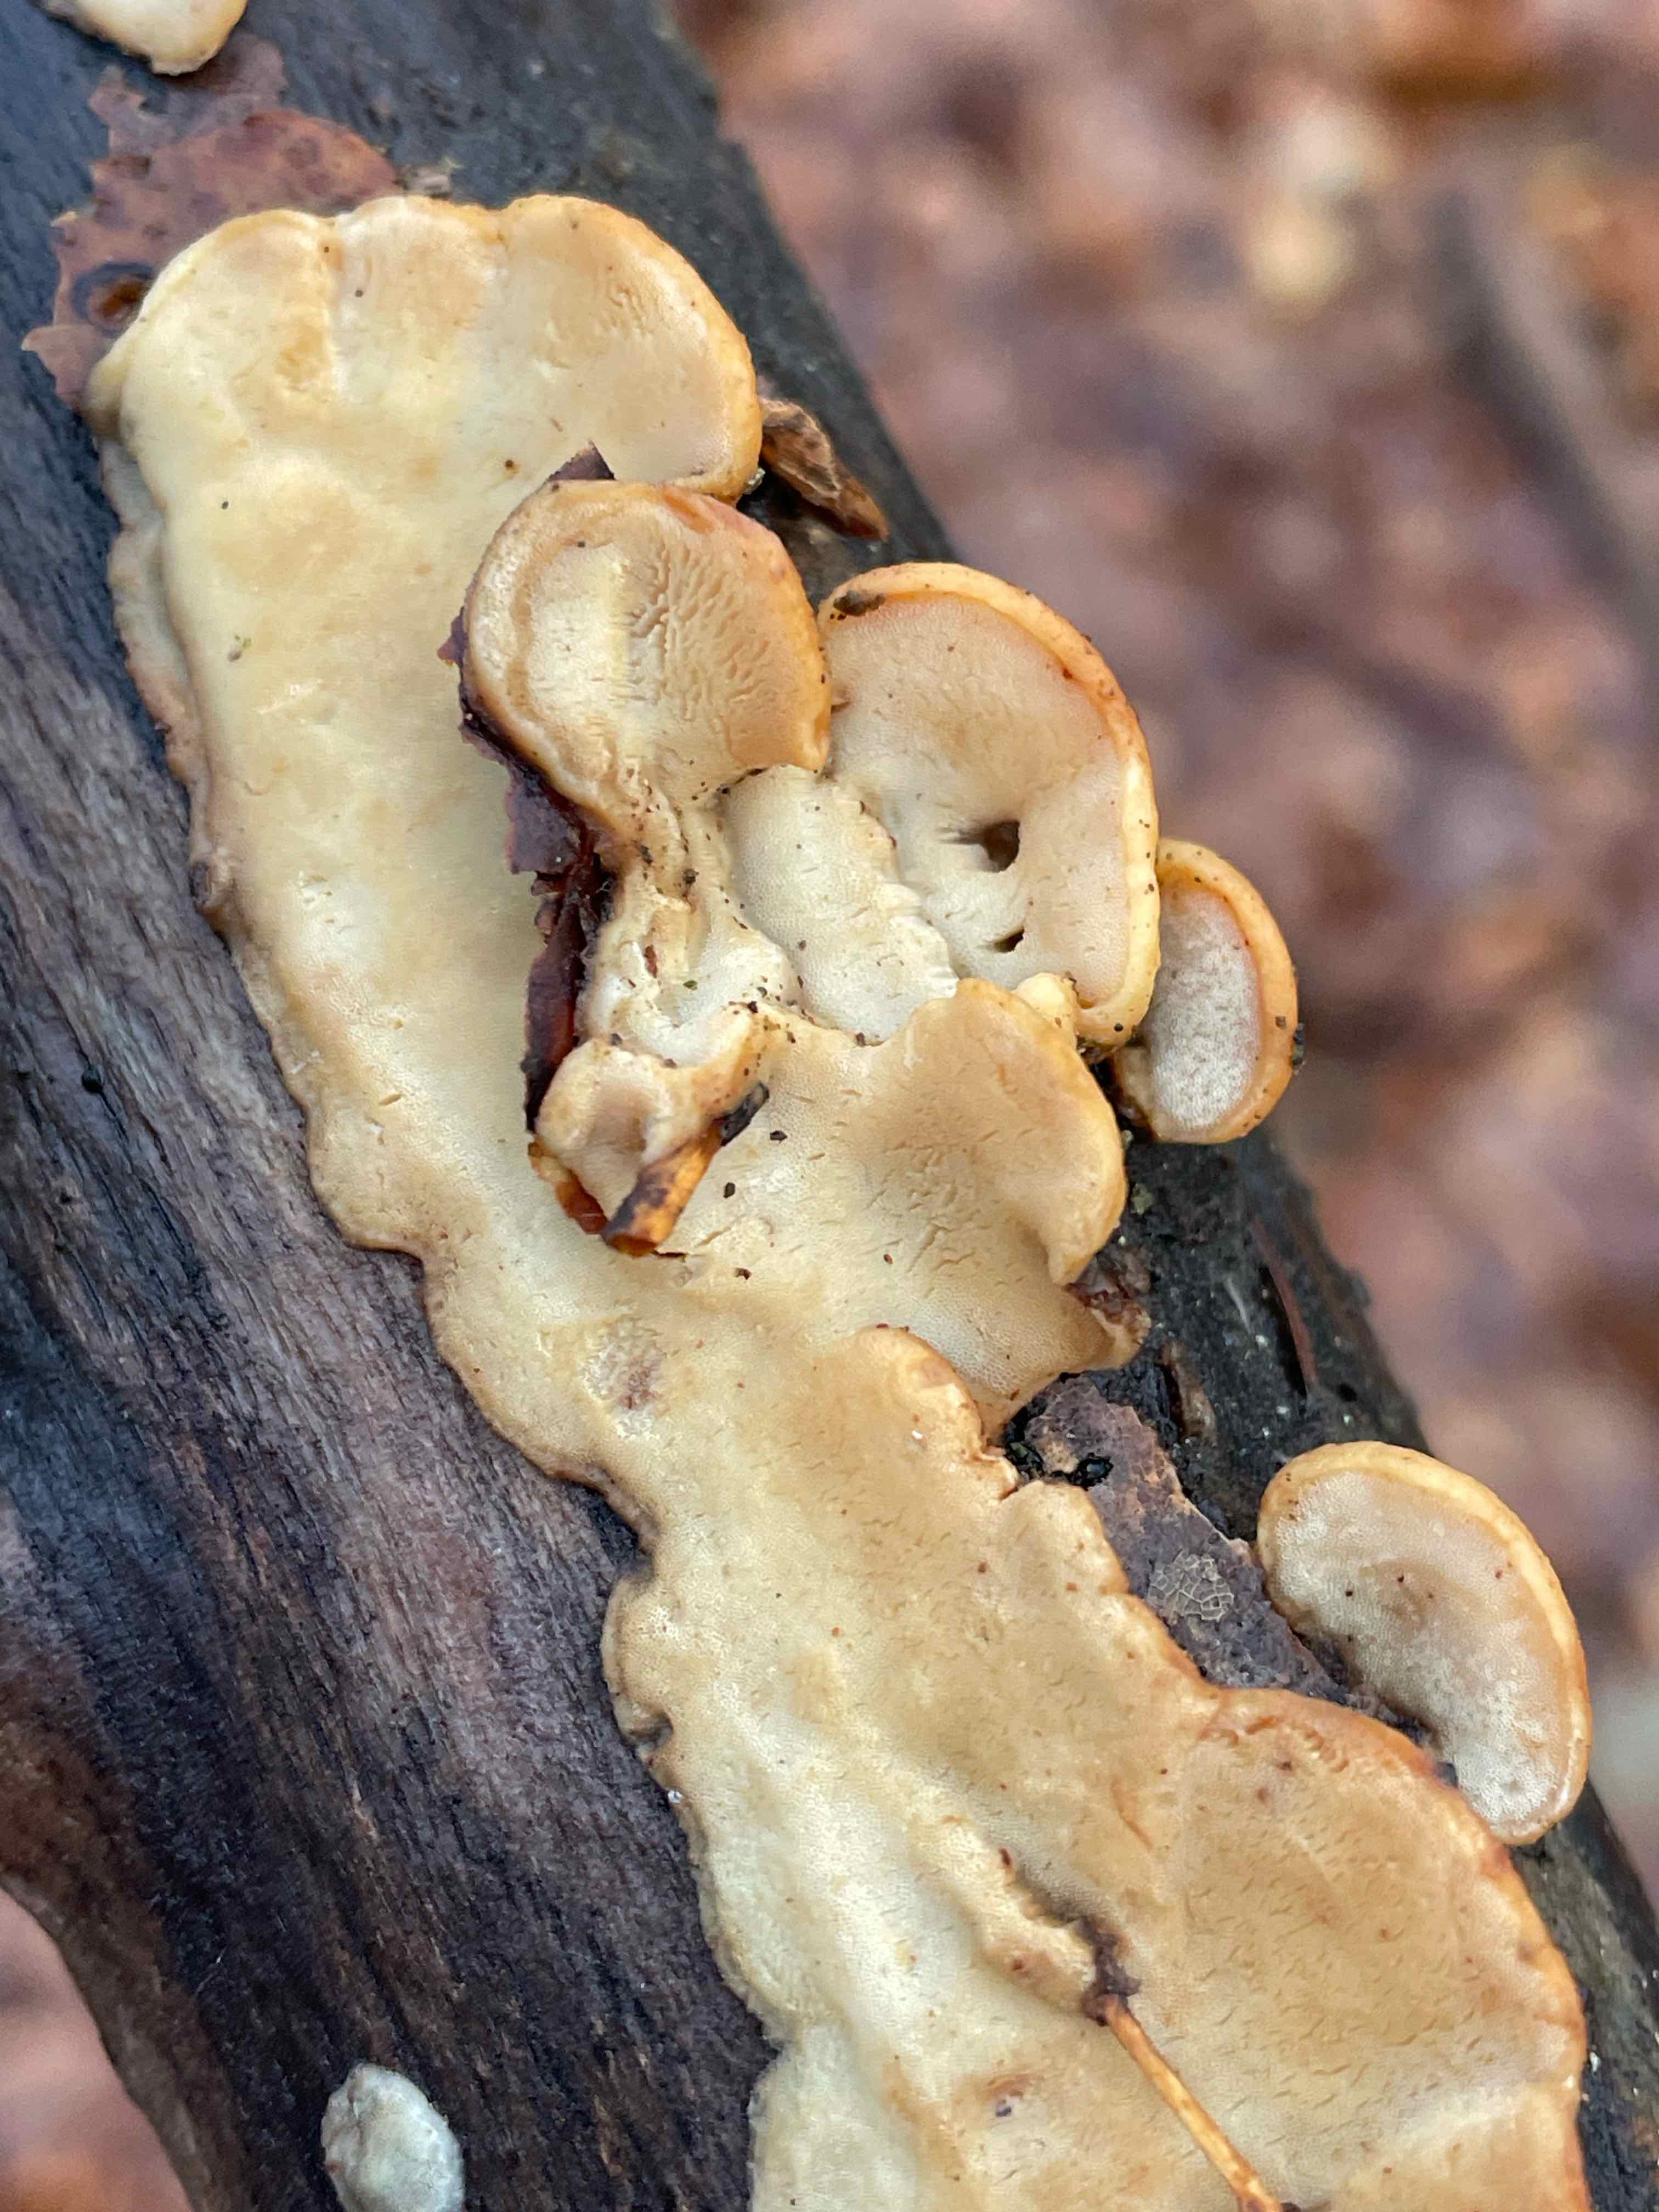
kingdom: Fungi
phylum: Basidiomycota
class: Agaricomycetes
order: Polyporales
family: Incrustoporiaceae
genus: Skeletocutis
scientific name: Skeletocutis nemoralis
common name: stor krystalporesvamp
